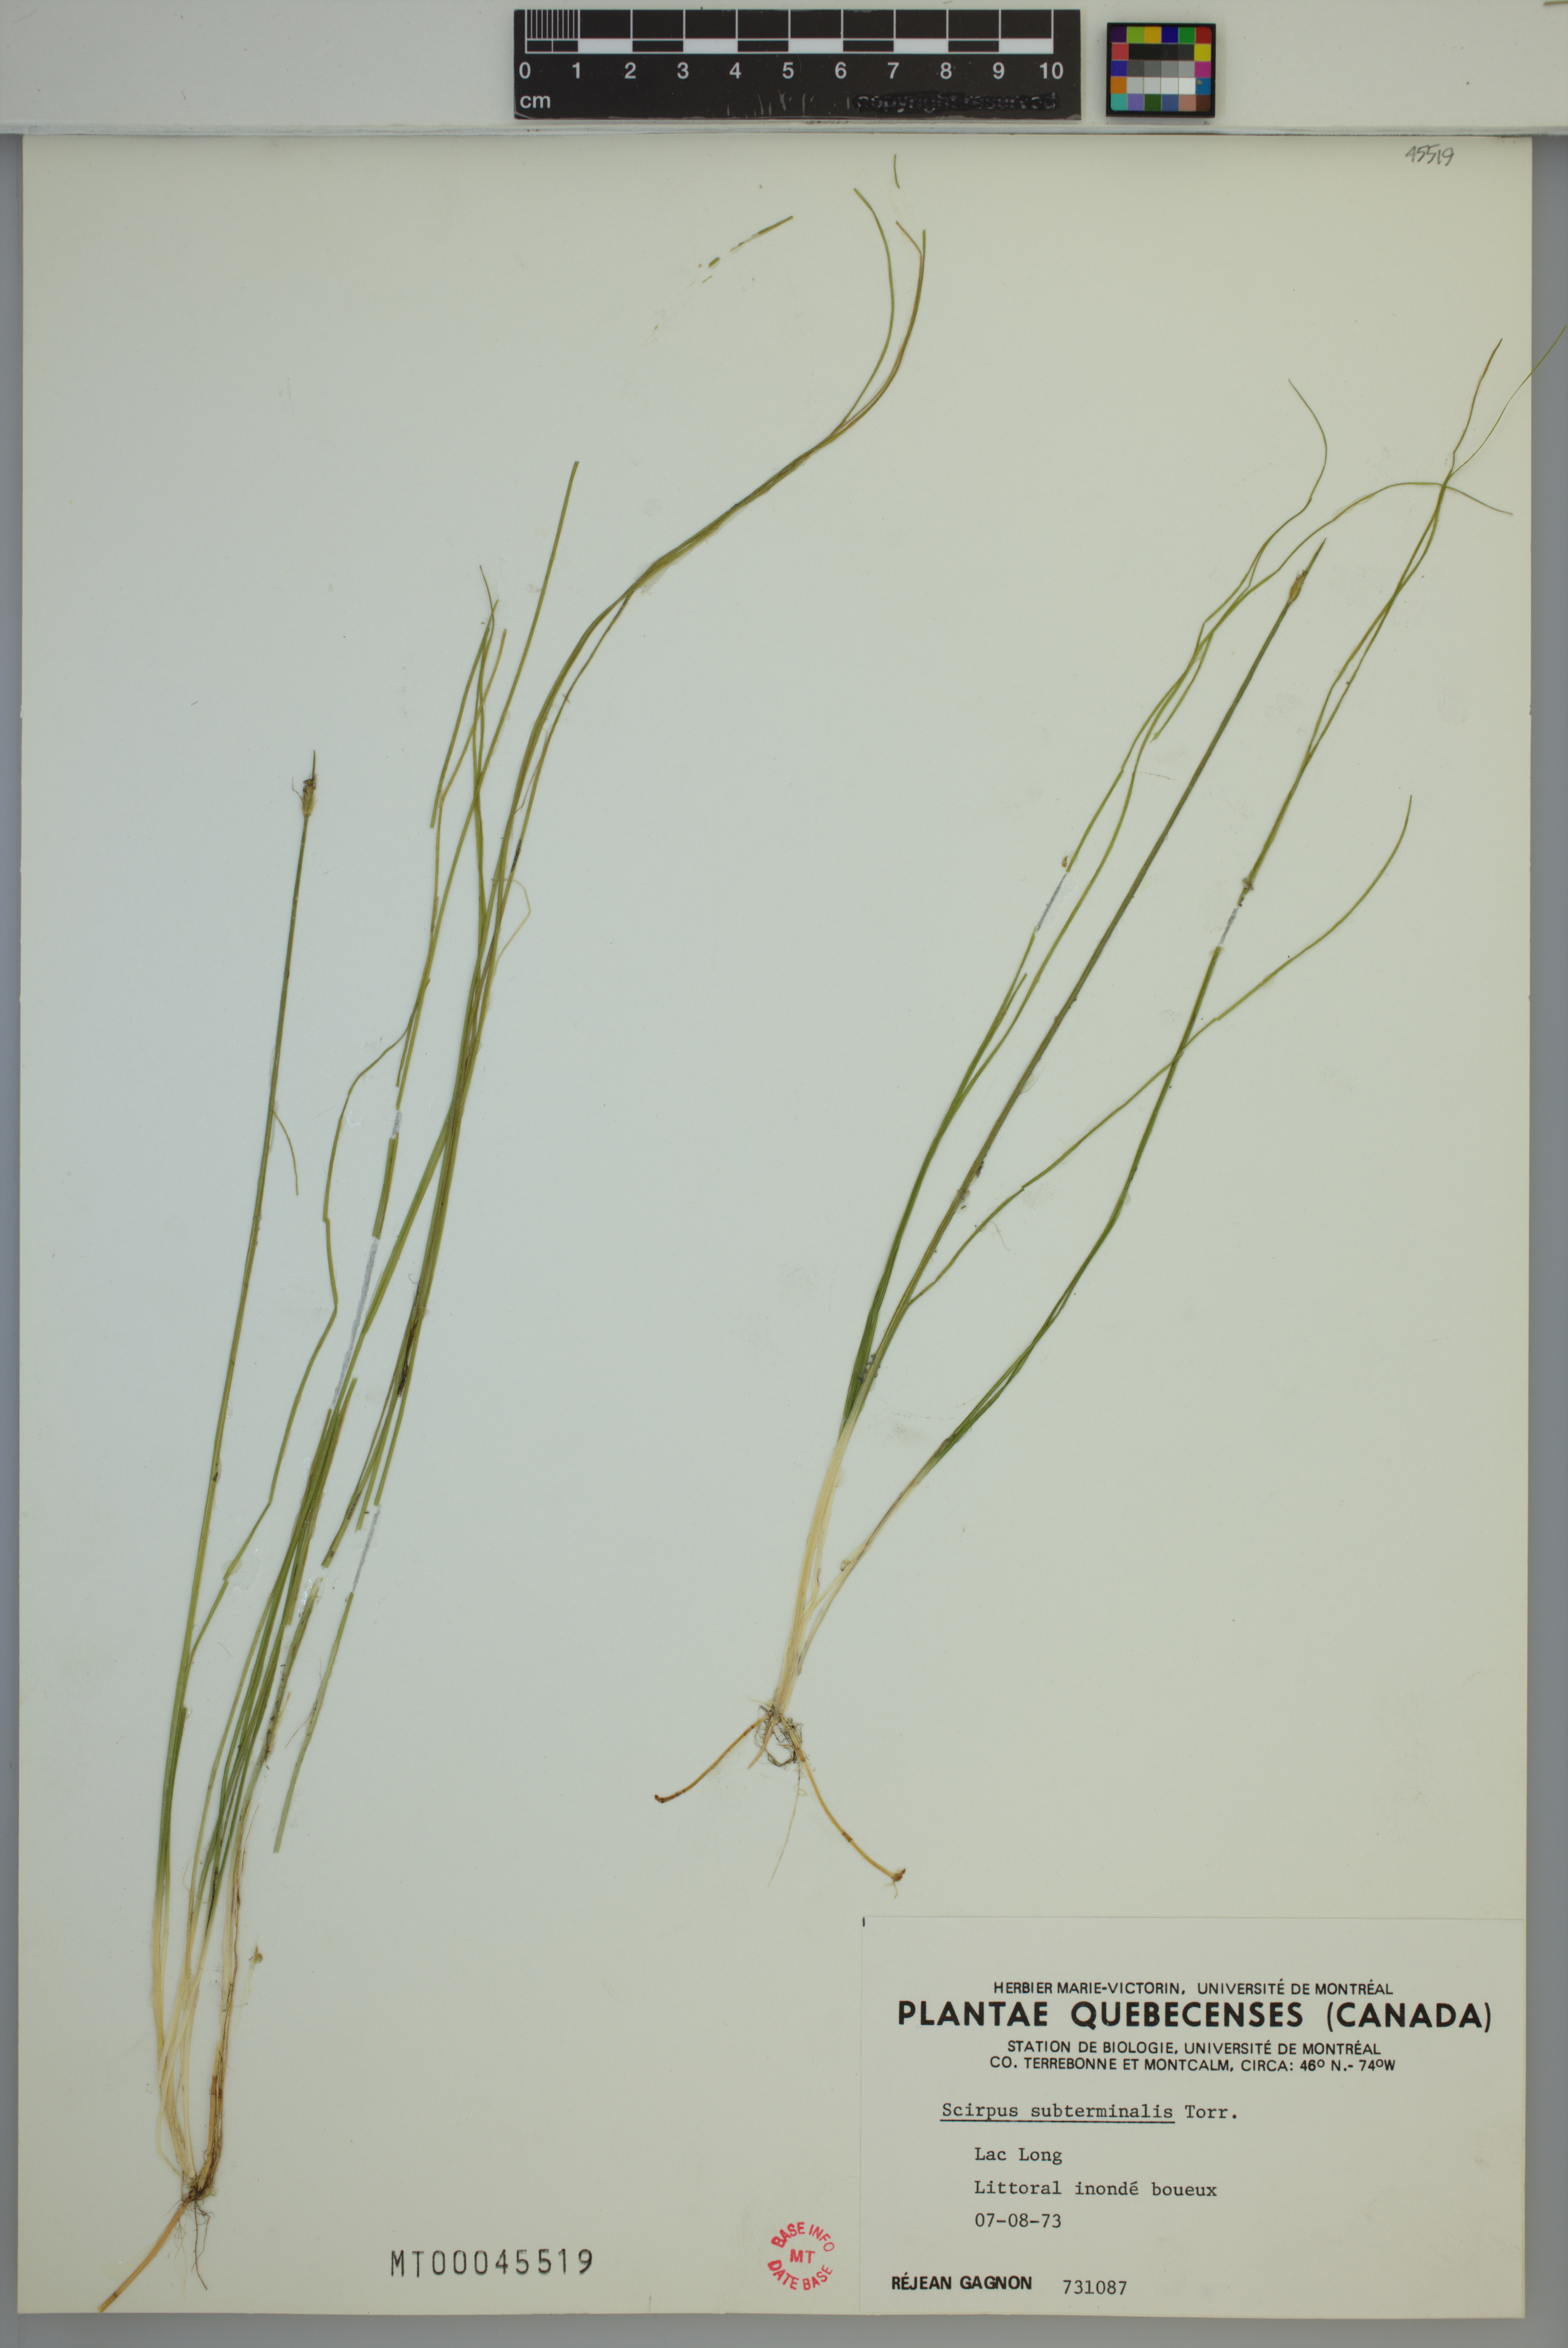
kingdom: Plantae
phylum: Tracheophyta
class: Liliopsida
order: Poales
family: Cyperaceae
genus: Schoenoplectus
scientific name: Schoenoplectus subterminalis
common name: Swaying bulrush
